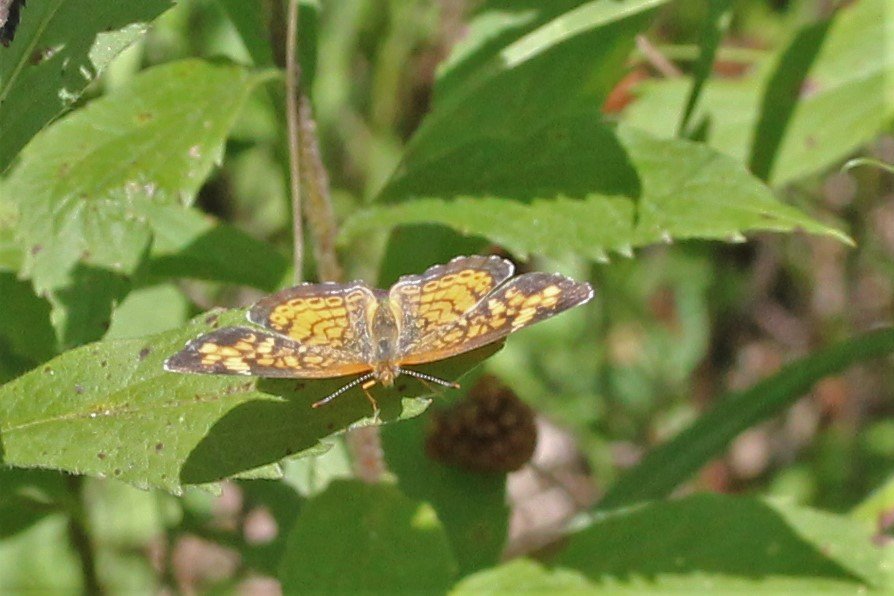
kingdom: Animalia
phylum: Arthropoda
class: Insecta
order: Lepidoptera
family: Nymphalidae
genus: Phyciodes
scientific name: Phyciodes tharos
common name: Northern Crescent
